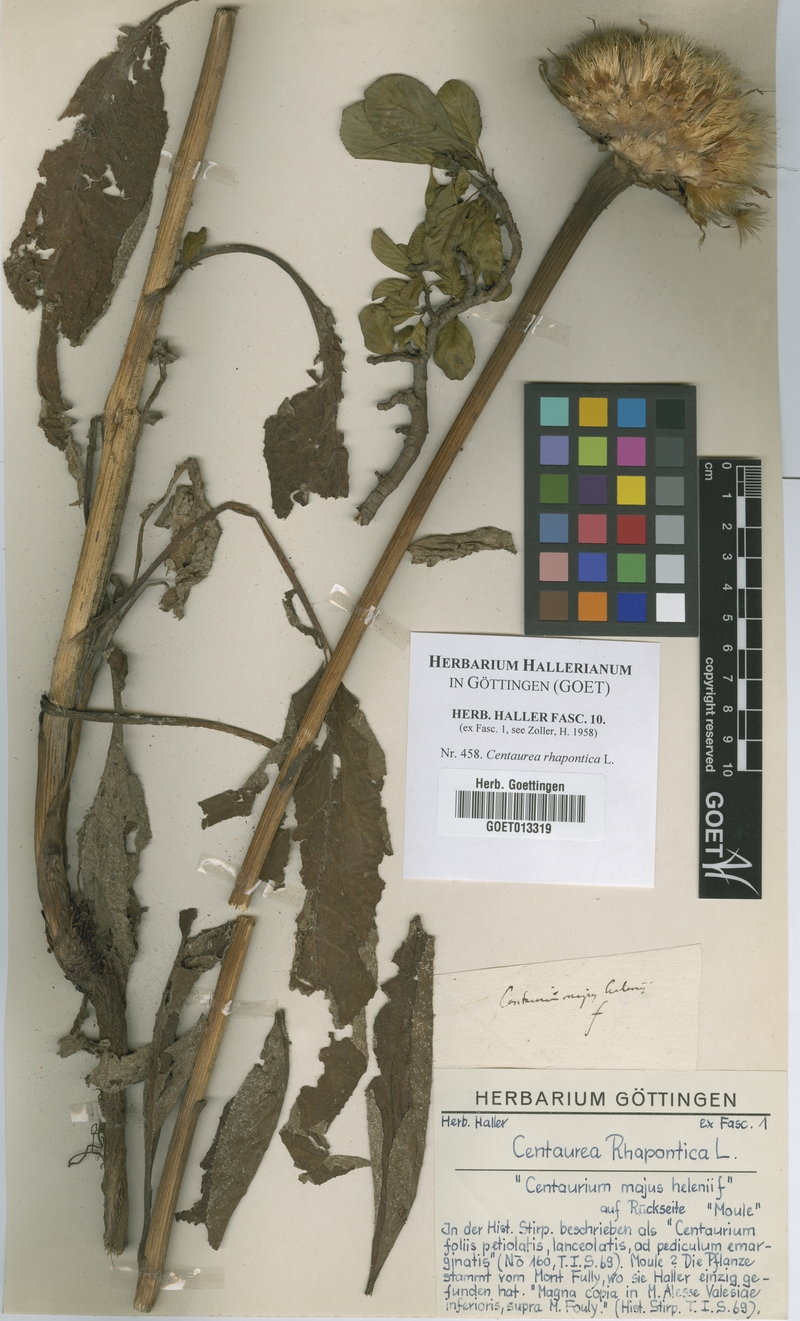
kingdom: Plantae
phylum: Tracheophyta
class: Magnoliopsida
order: Asterales
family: Asteraceae
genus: Leuzea
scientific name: Leuzea rhapontica
